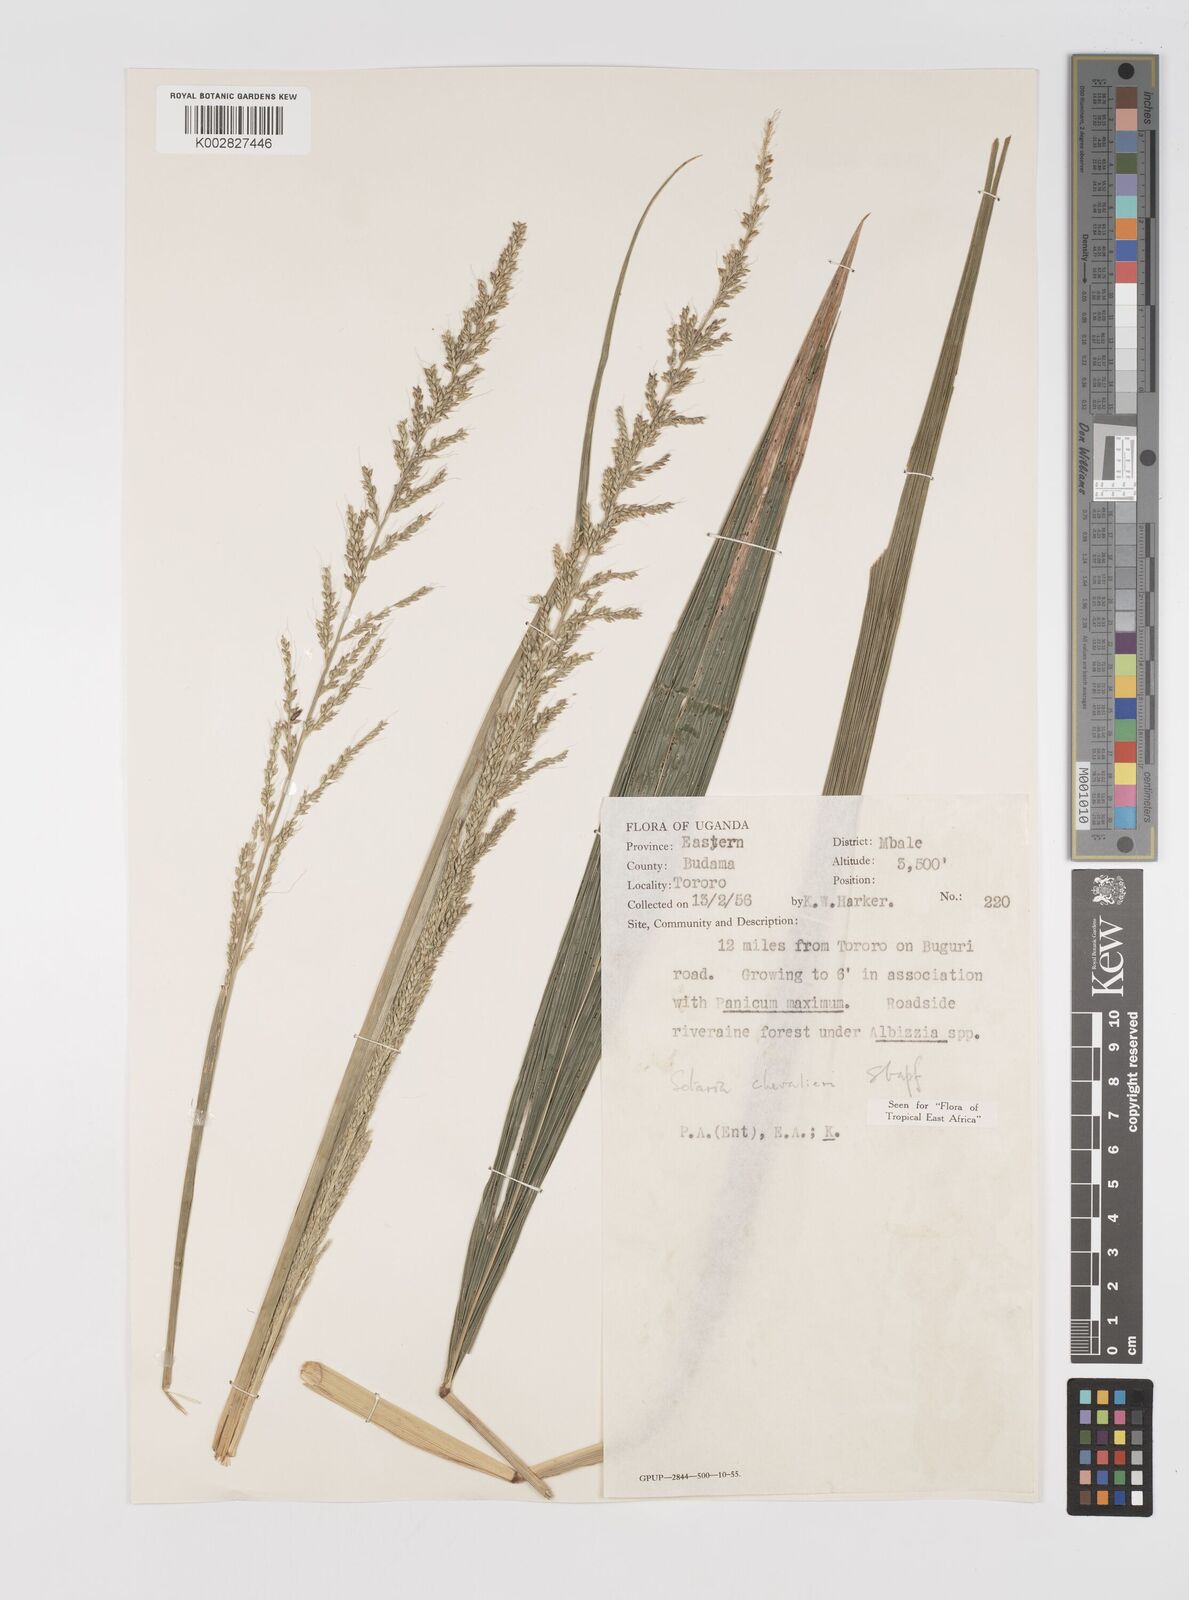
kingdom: Plantae
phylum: Tracheophyta
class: Liliopsida
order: Poales
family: Poaceae
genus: Setaria
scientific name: Setaria megaphylla
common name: Bigleaf bristlegrass
